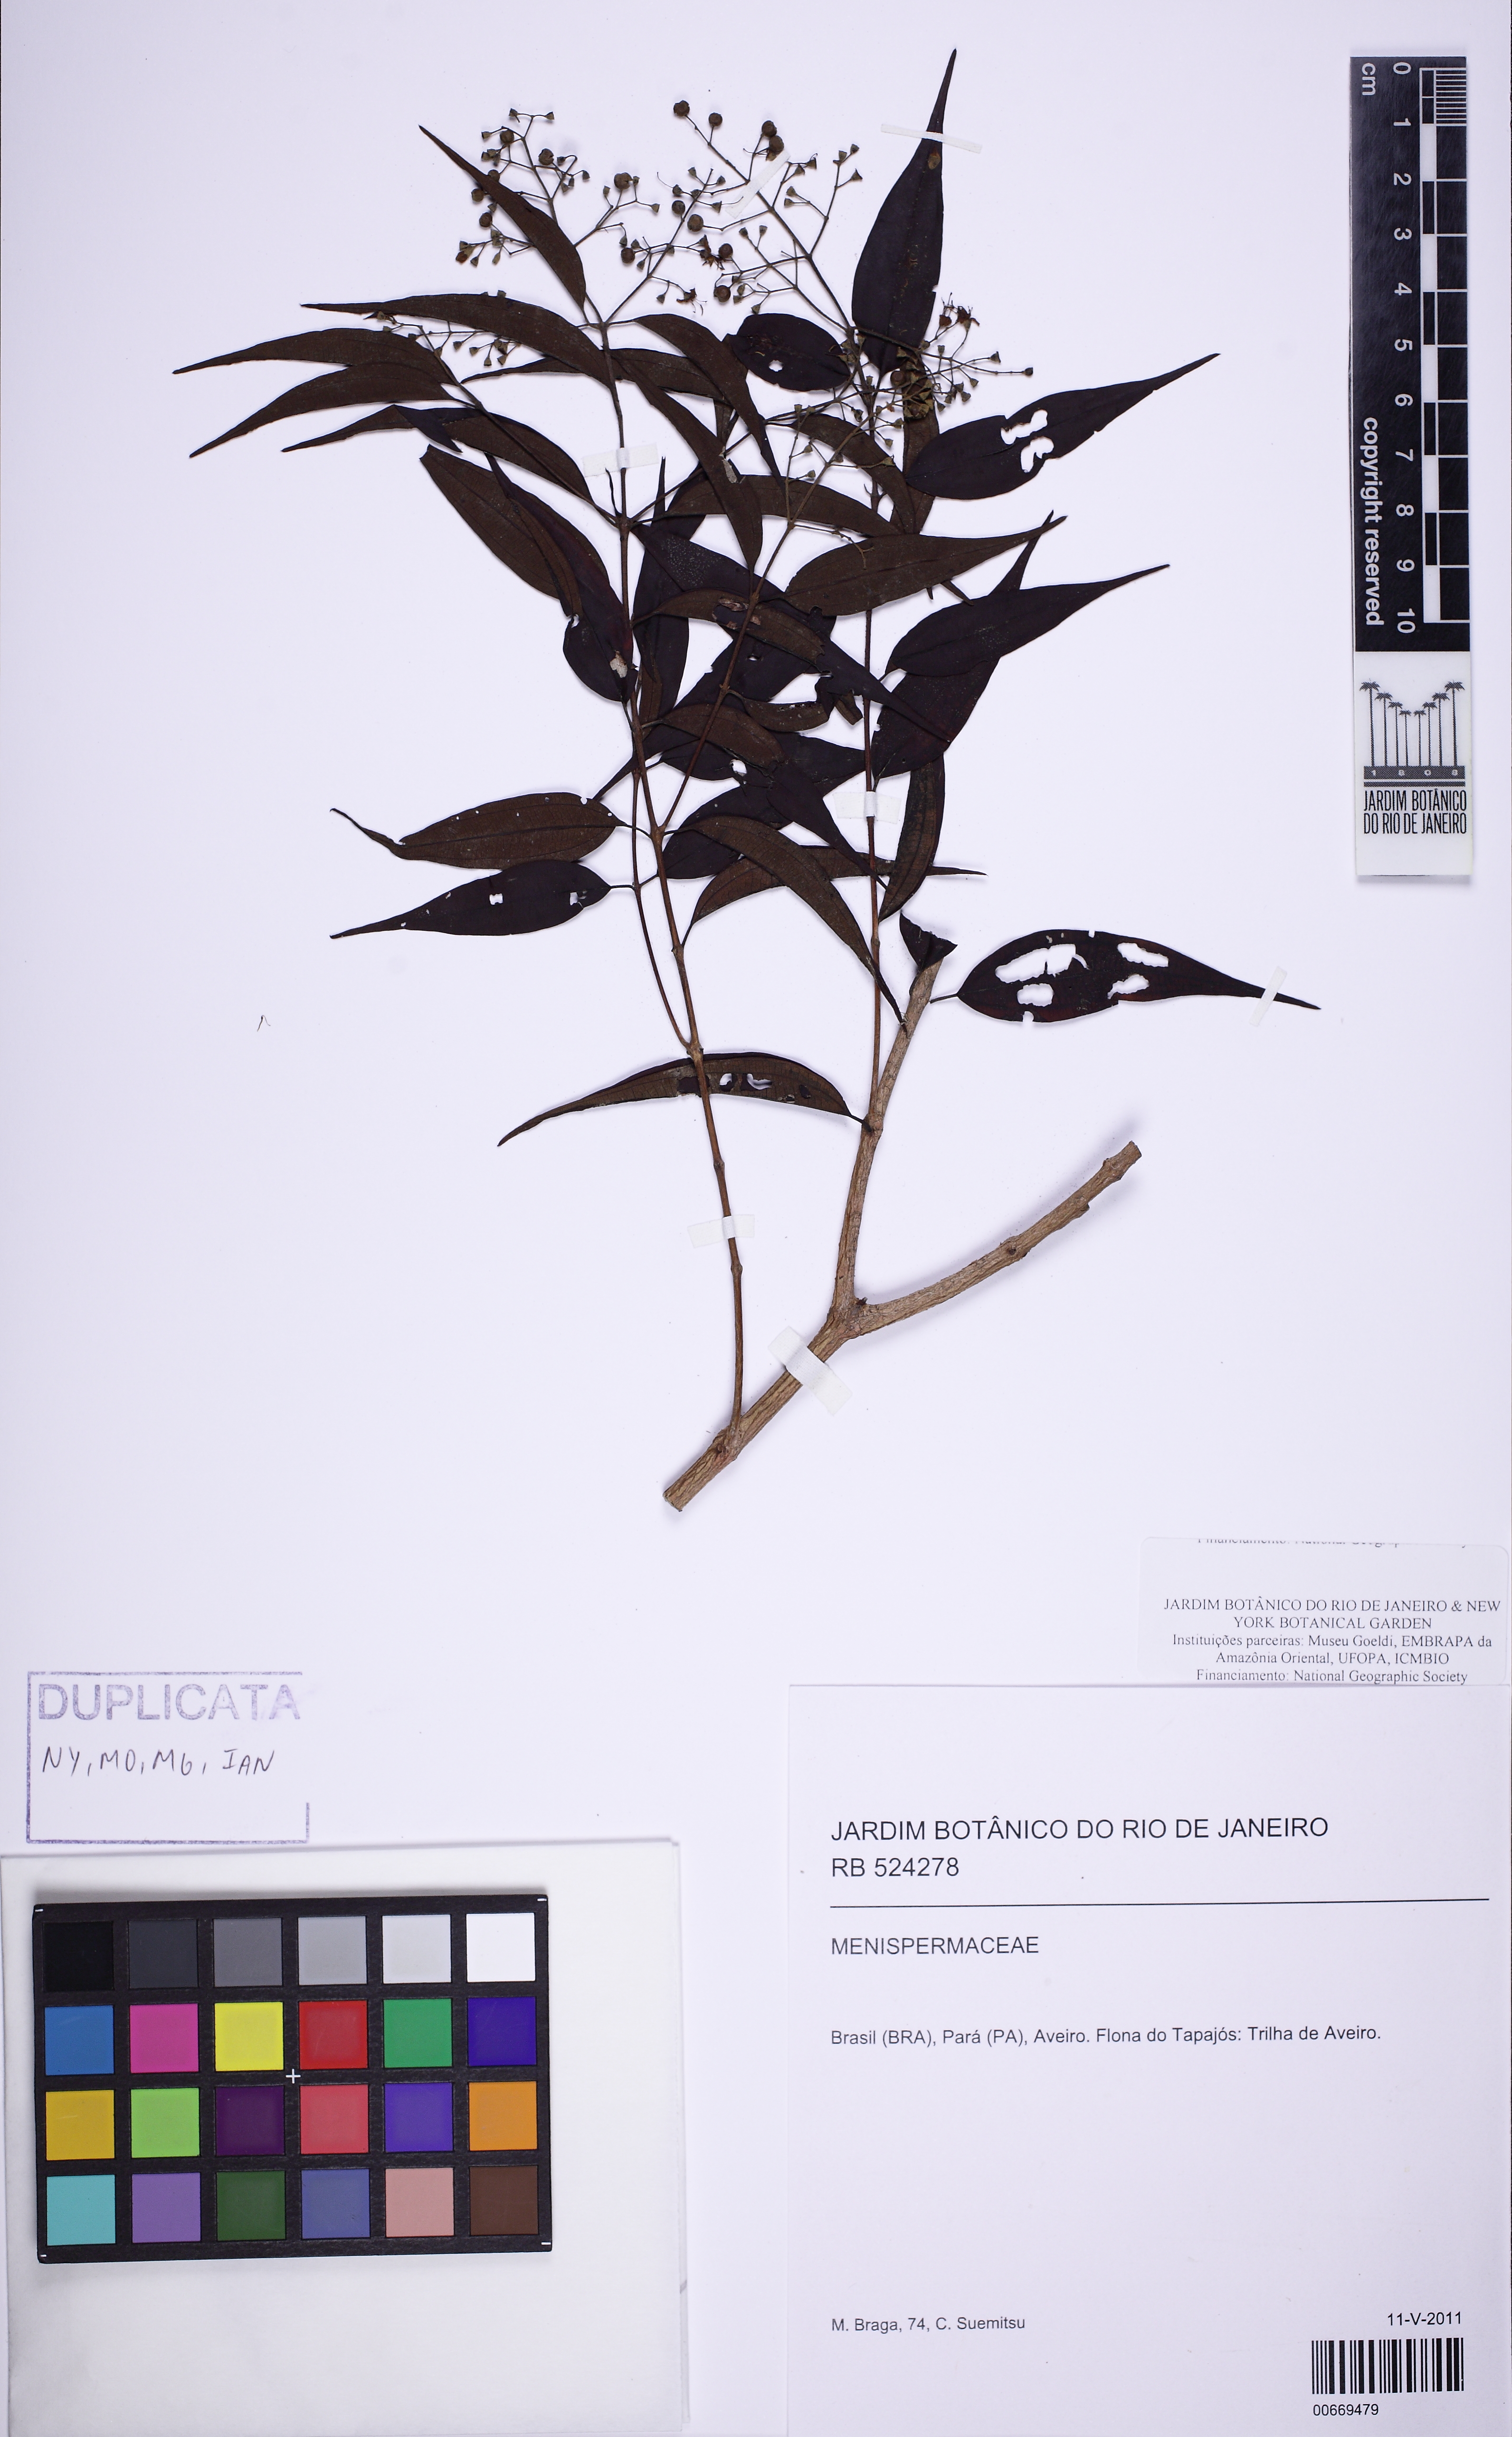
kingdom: Plantae
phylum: Tracheophyta
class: Magnoliopsida
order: Myrtales
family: Melastomataceae
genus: Miconia
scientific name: Miconia cuspidata
